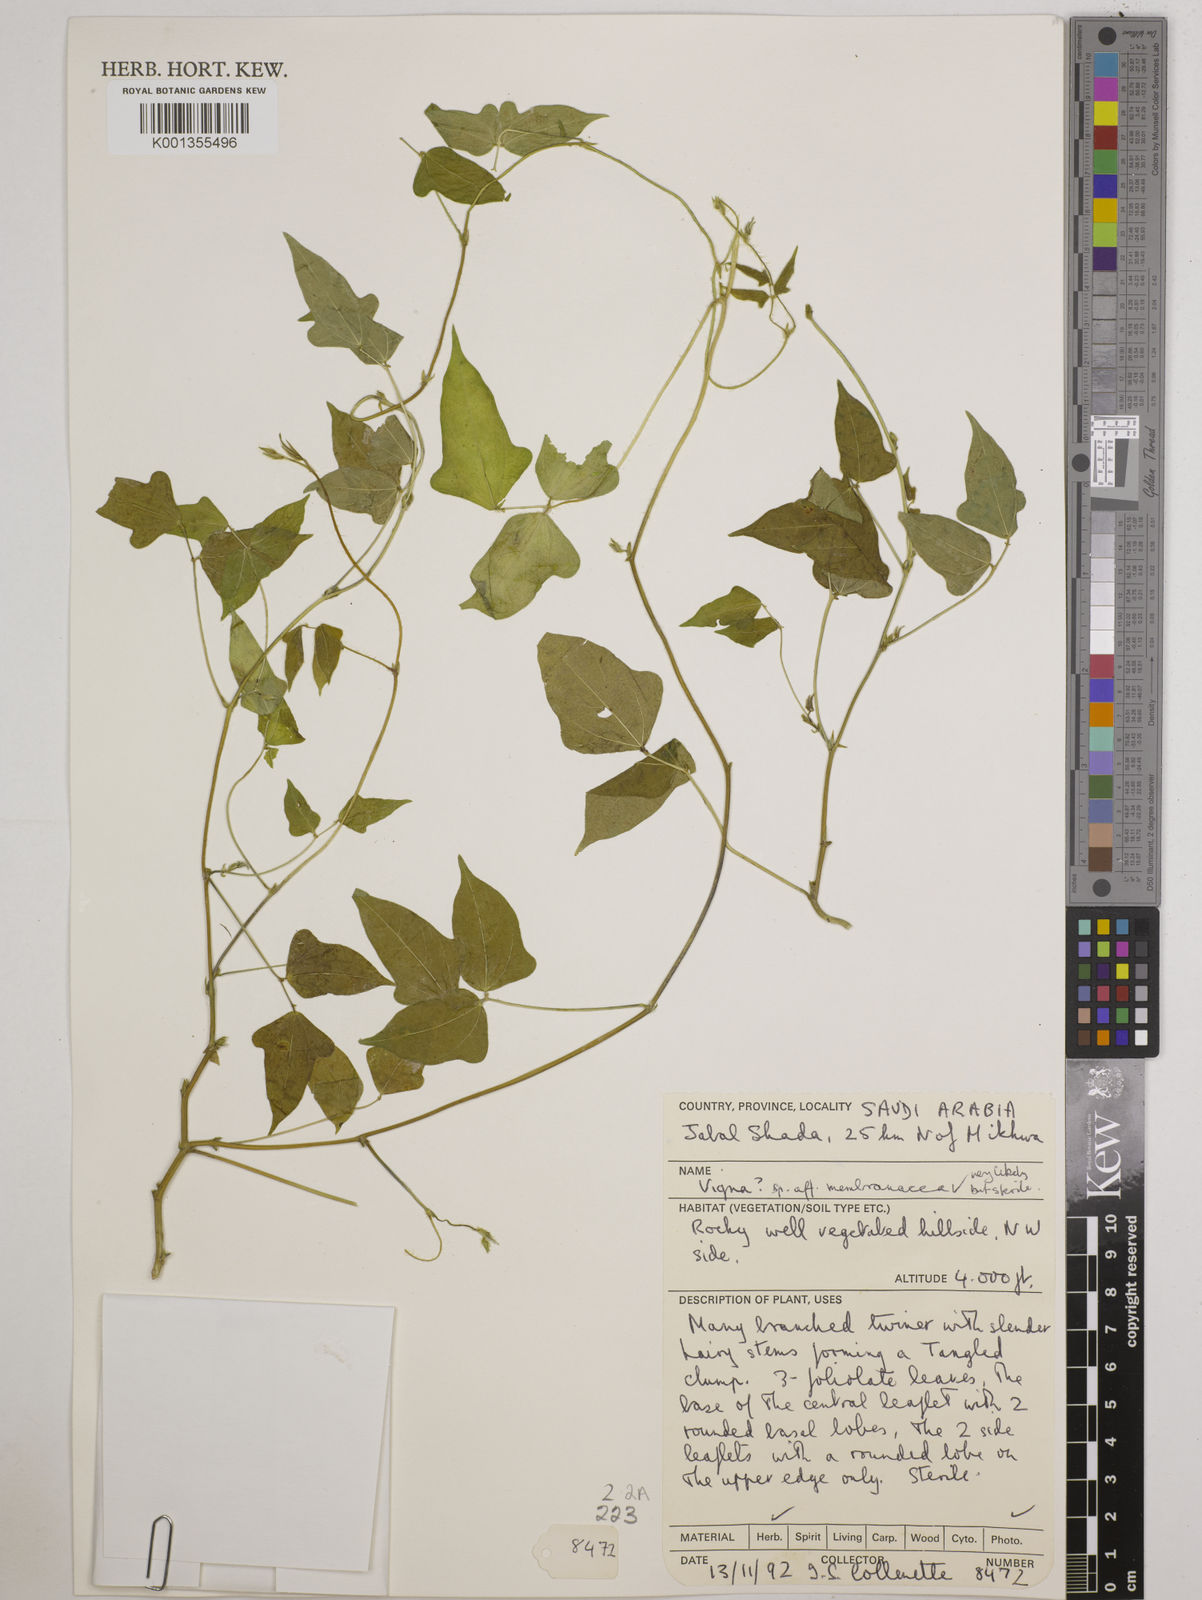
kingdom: Plantae
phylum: Tracheophyta
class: Magnoliopsida
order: Fabales
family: Fabaceae
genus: Vigna
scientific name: Vigna membranacea
